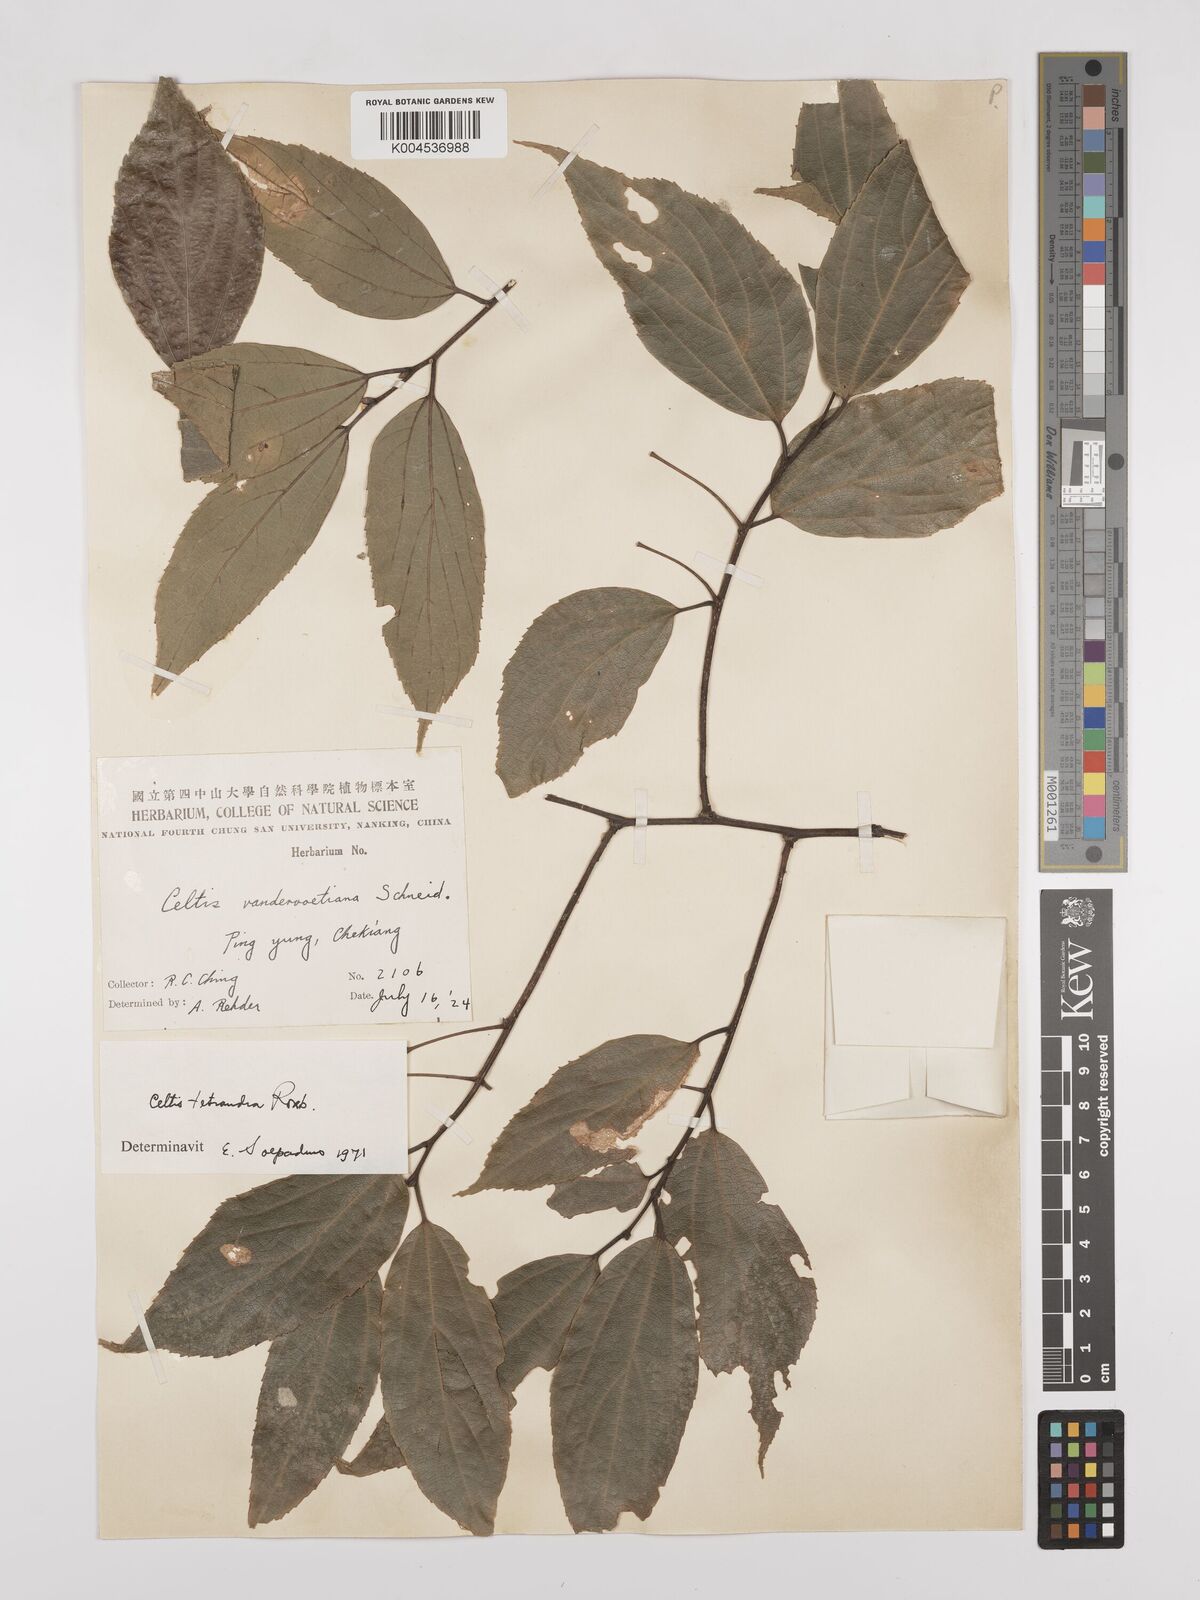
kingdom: Plantae
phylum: Tracheophyta
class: Magnoliopsida
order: Rosales
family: Cannabaceae
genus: Celtis
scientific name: Celtis tetrandra
